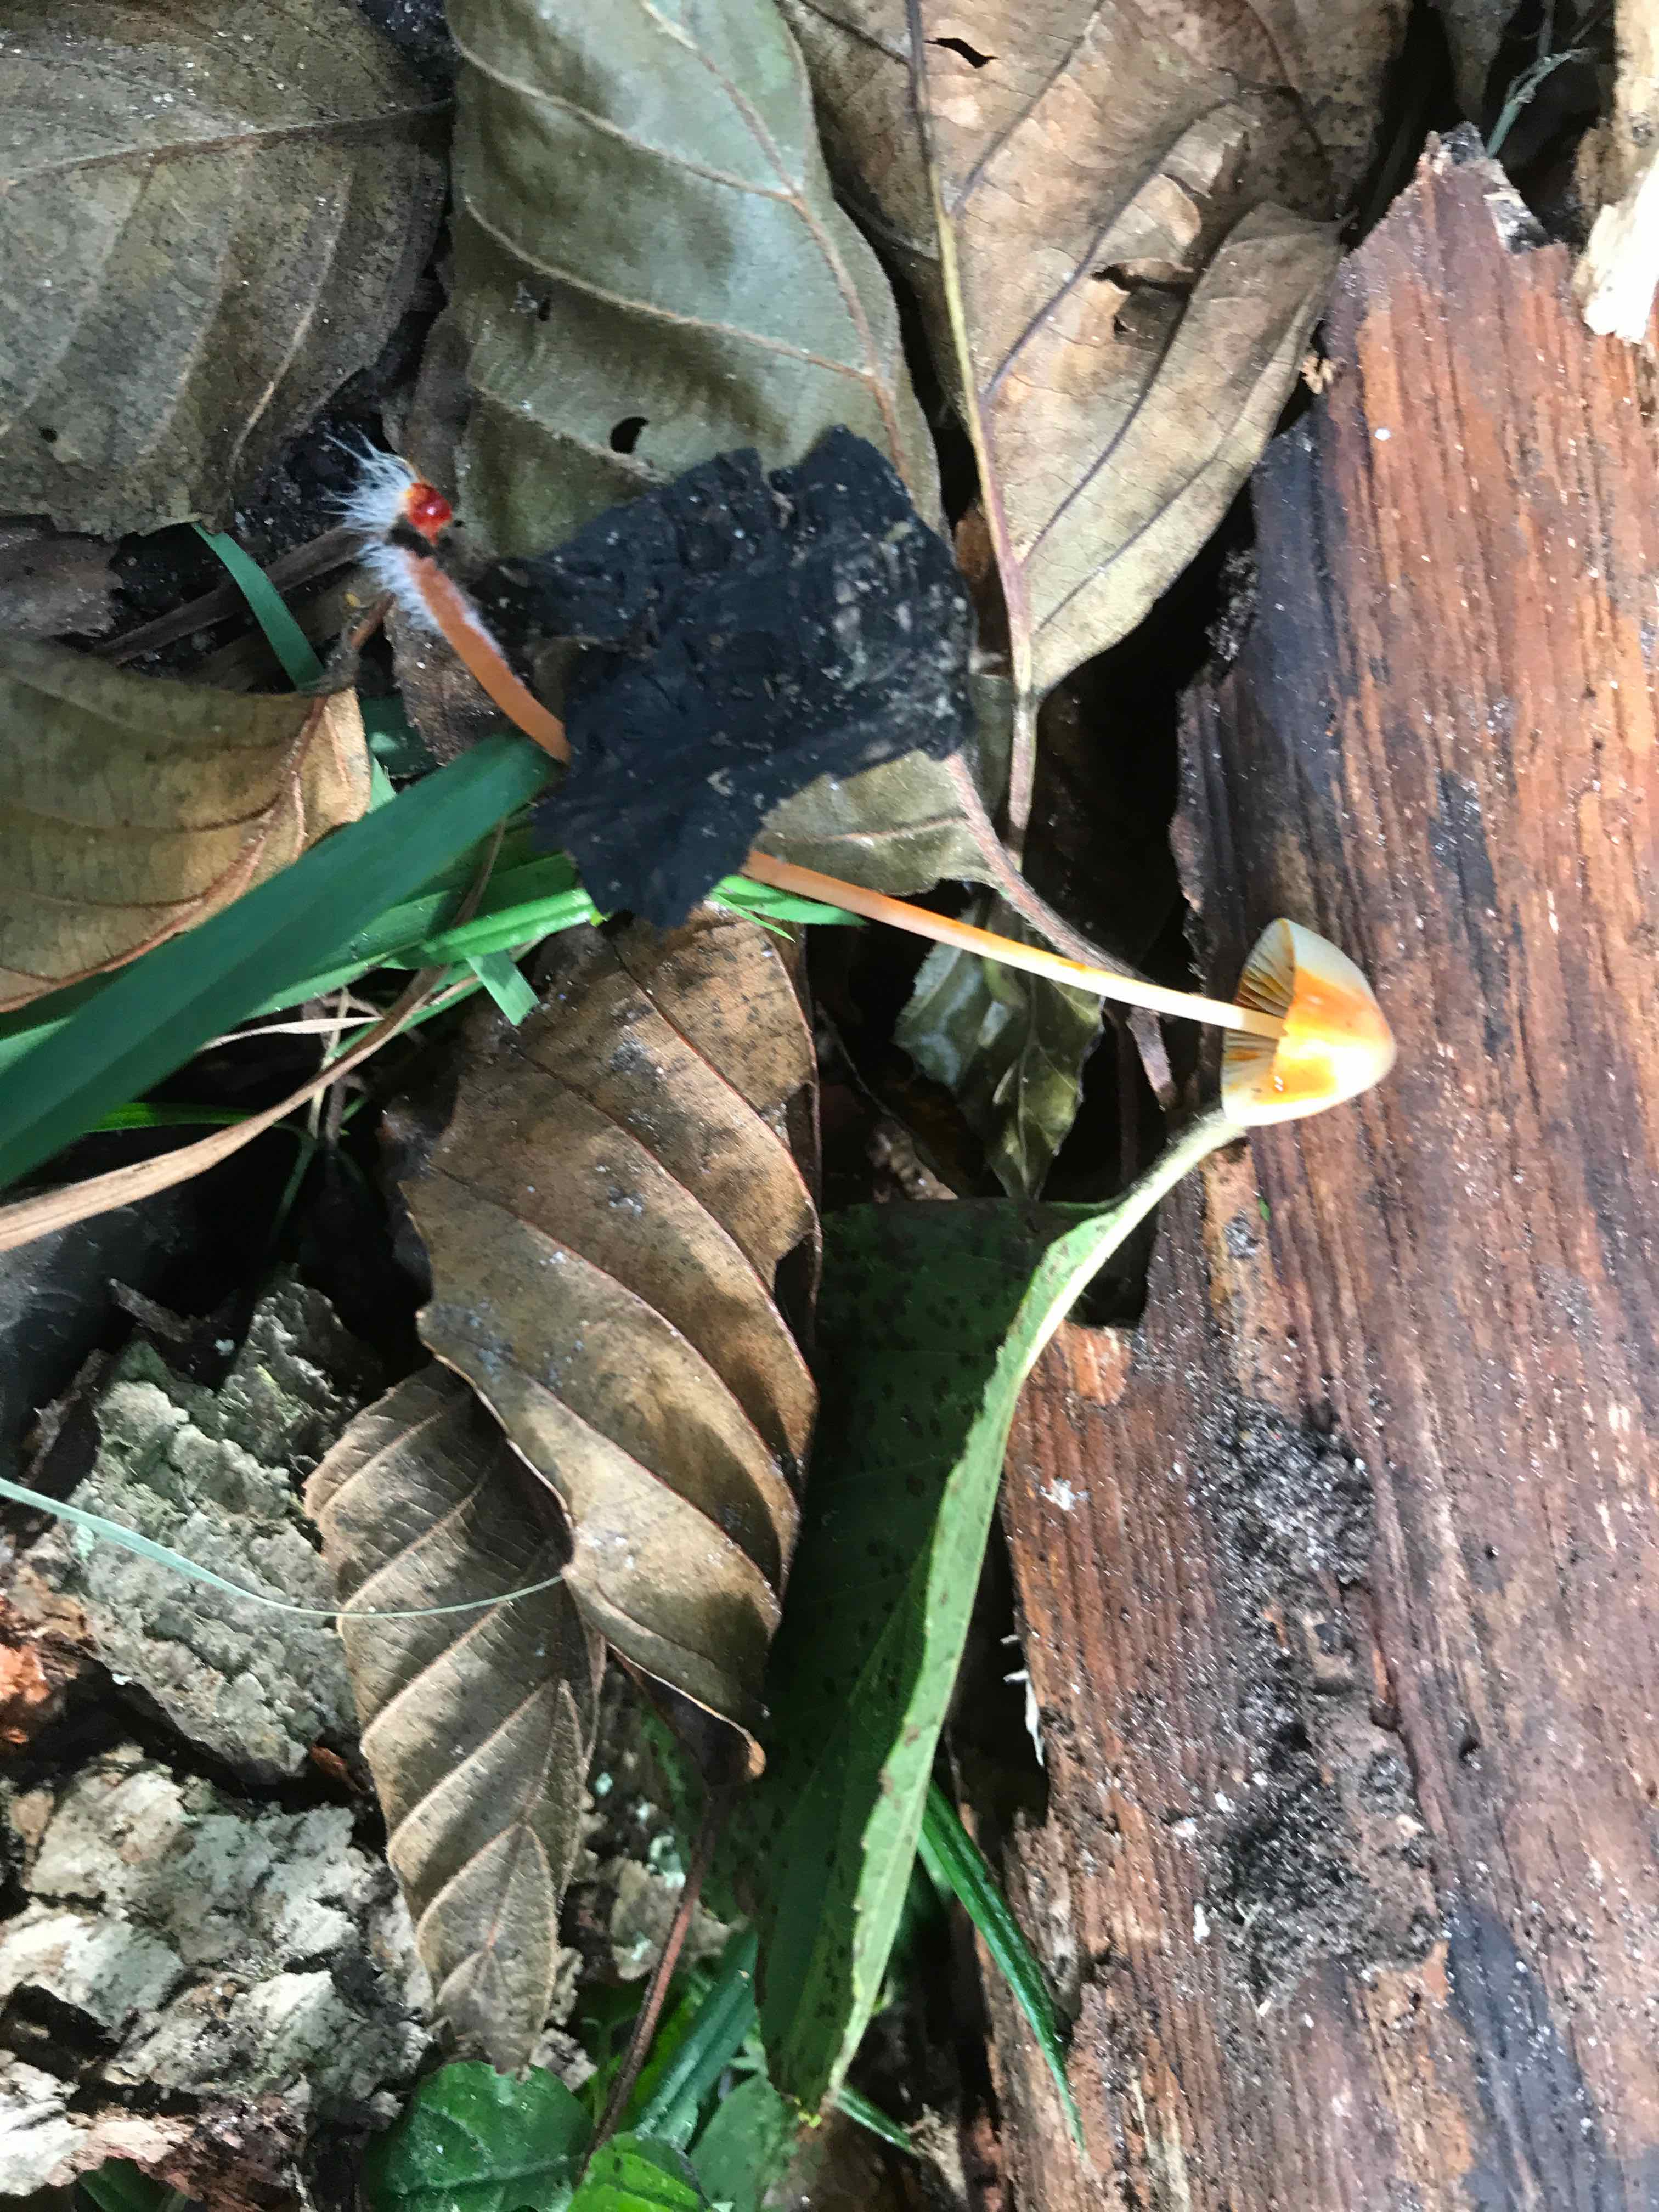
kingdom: Fungi
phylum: Basidiomycota
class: Agaricomycetes
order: Agaricales
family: Mycenaceae
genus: Mycena
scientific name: Mycena crocata
